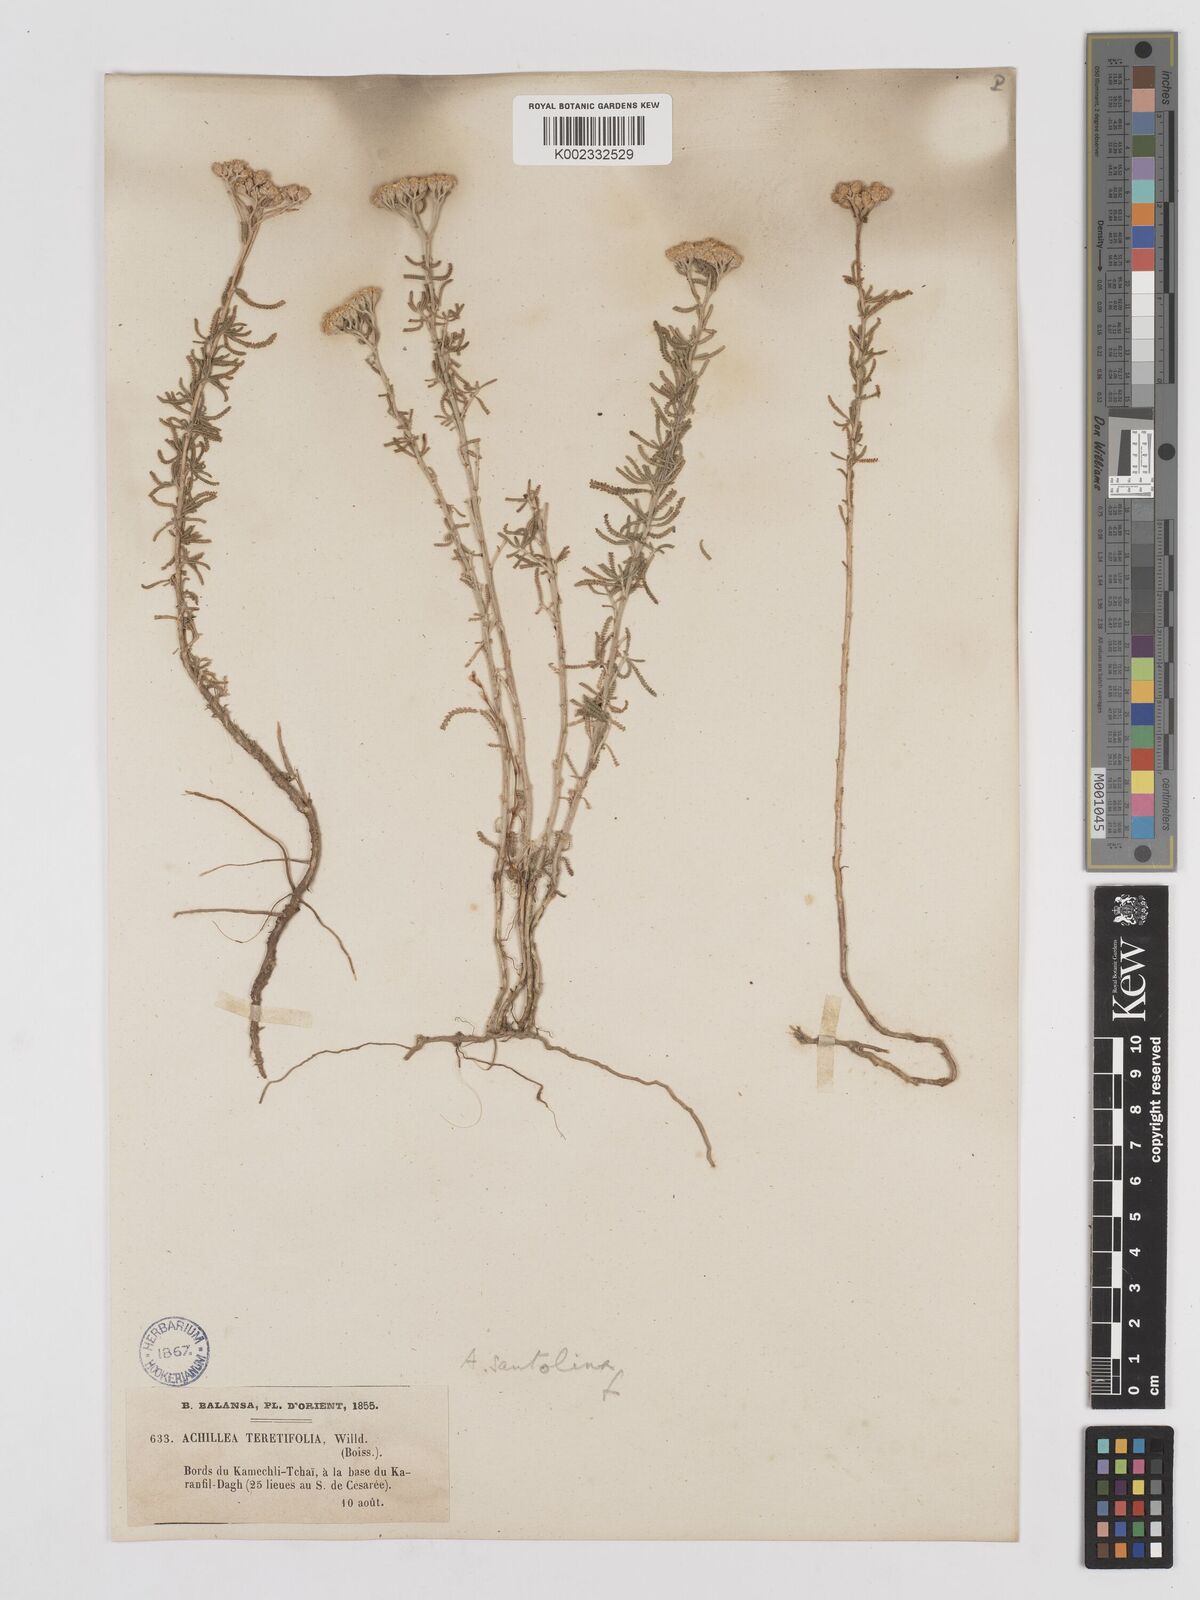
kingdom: Plantae
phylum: Tracheophyta
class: Magnoliopsida
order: Asterales
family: Asteraceae
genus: Achillea
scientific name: Achillea tenuifolia
